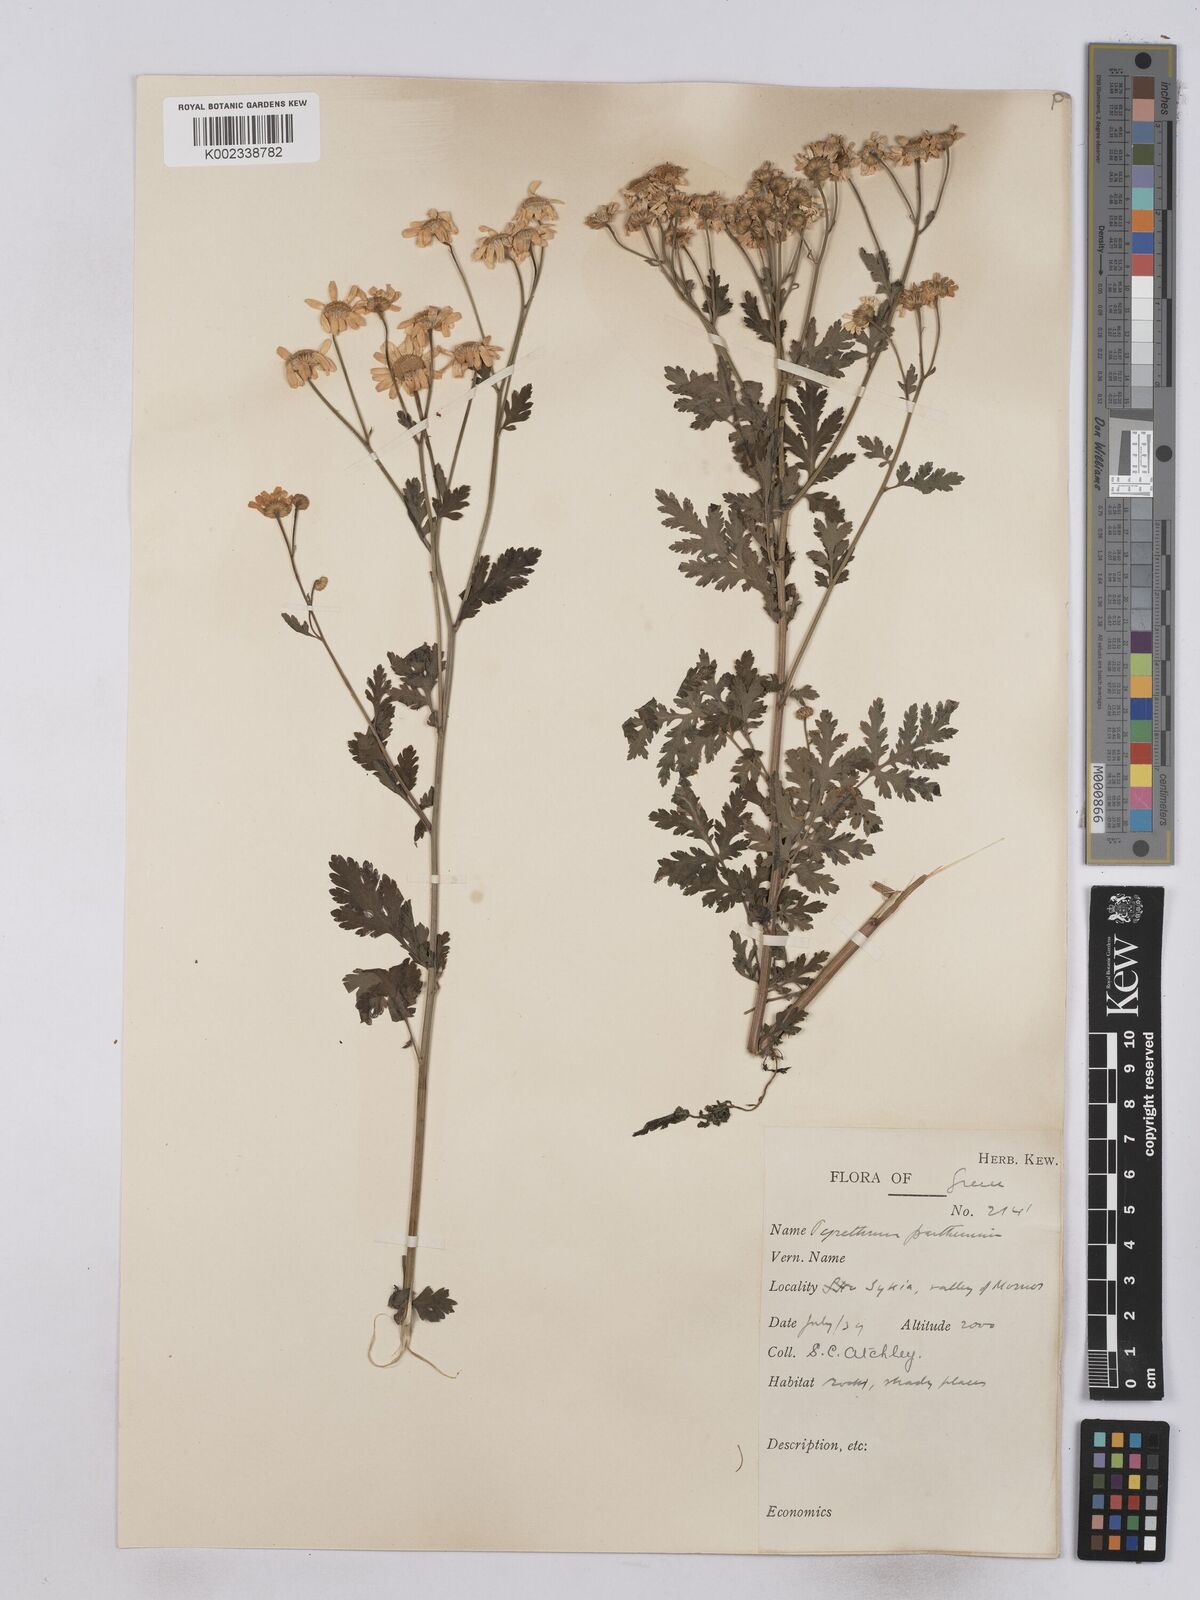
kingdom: Plantae
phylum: Tracheophyta
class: Magnoliopsida
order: Asterales
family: Asteraceae
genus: Tanacetum
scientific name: Tanacetum parthenium
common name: Feverfew
